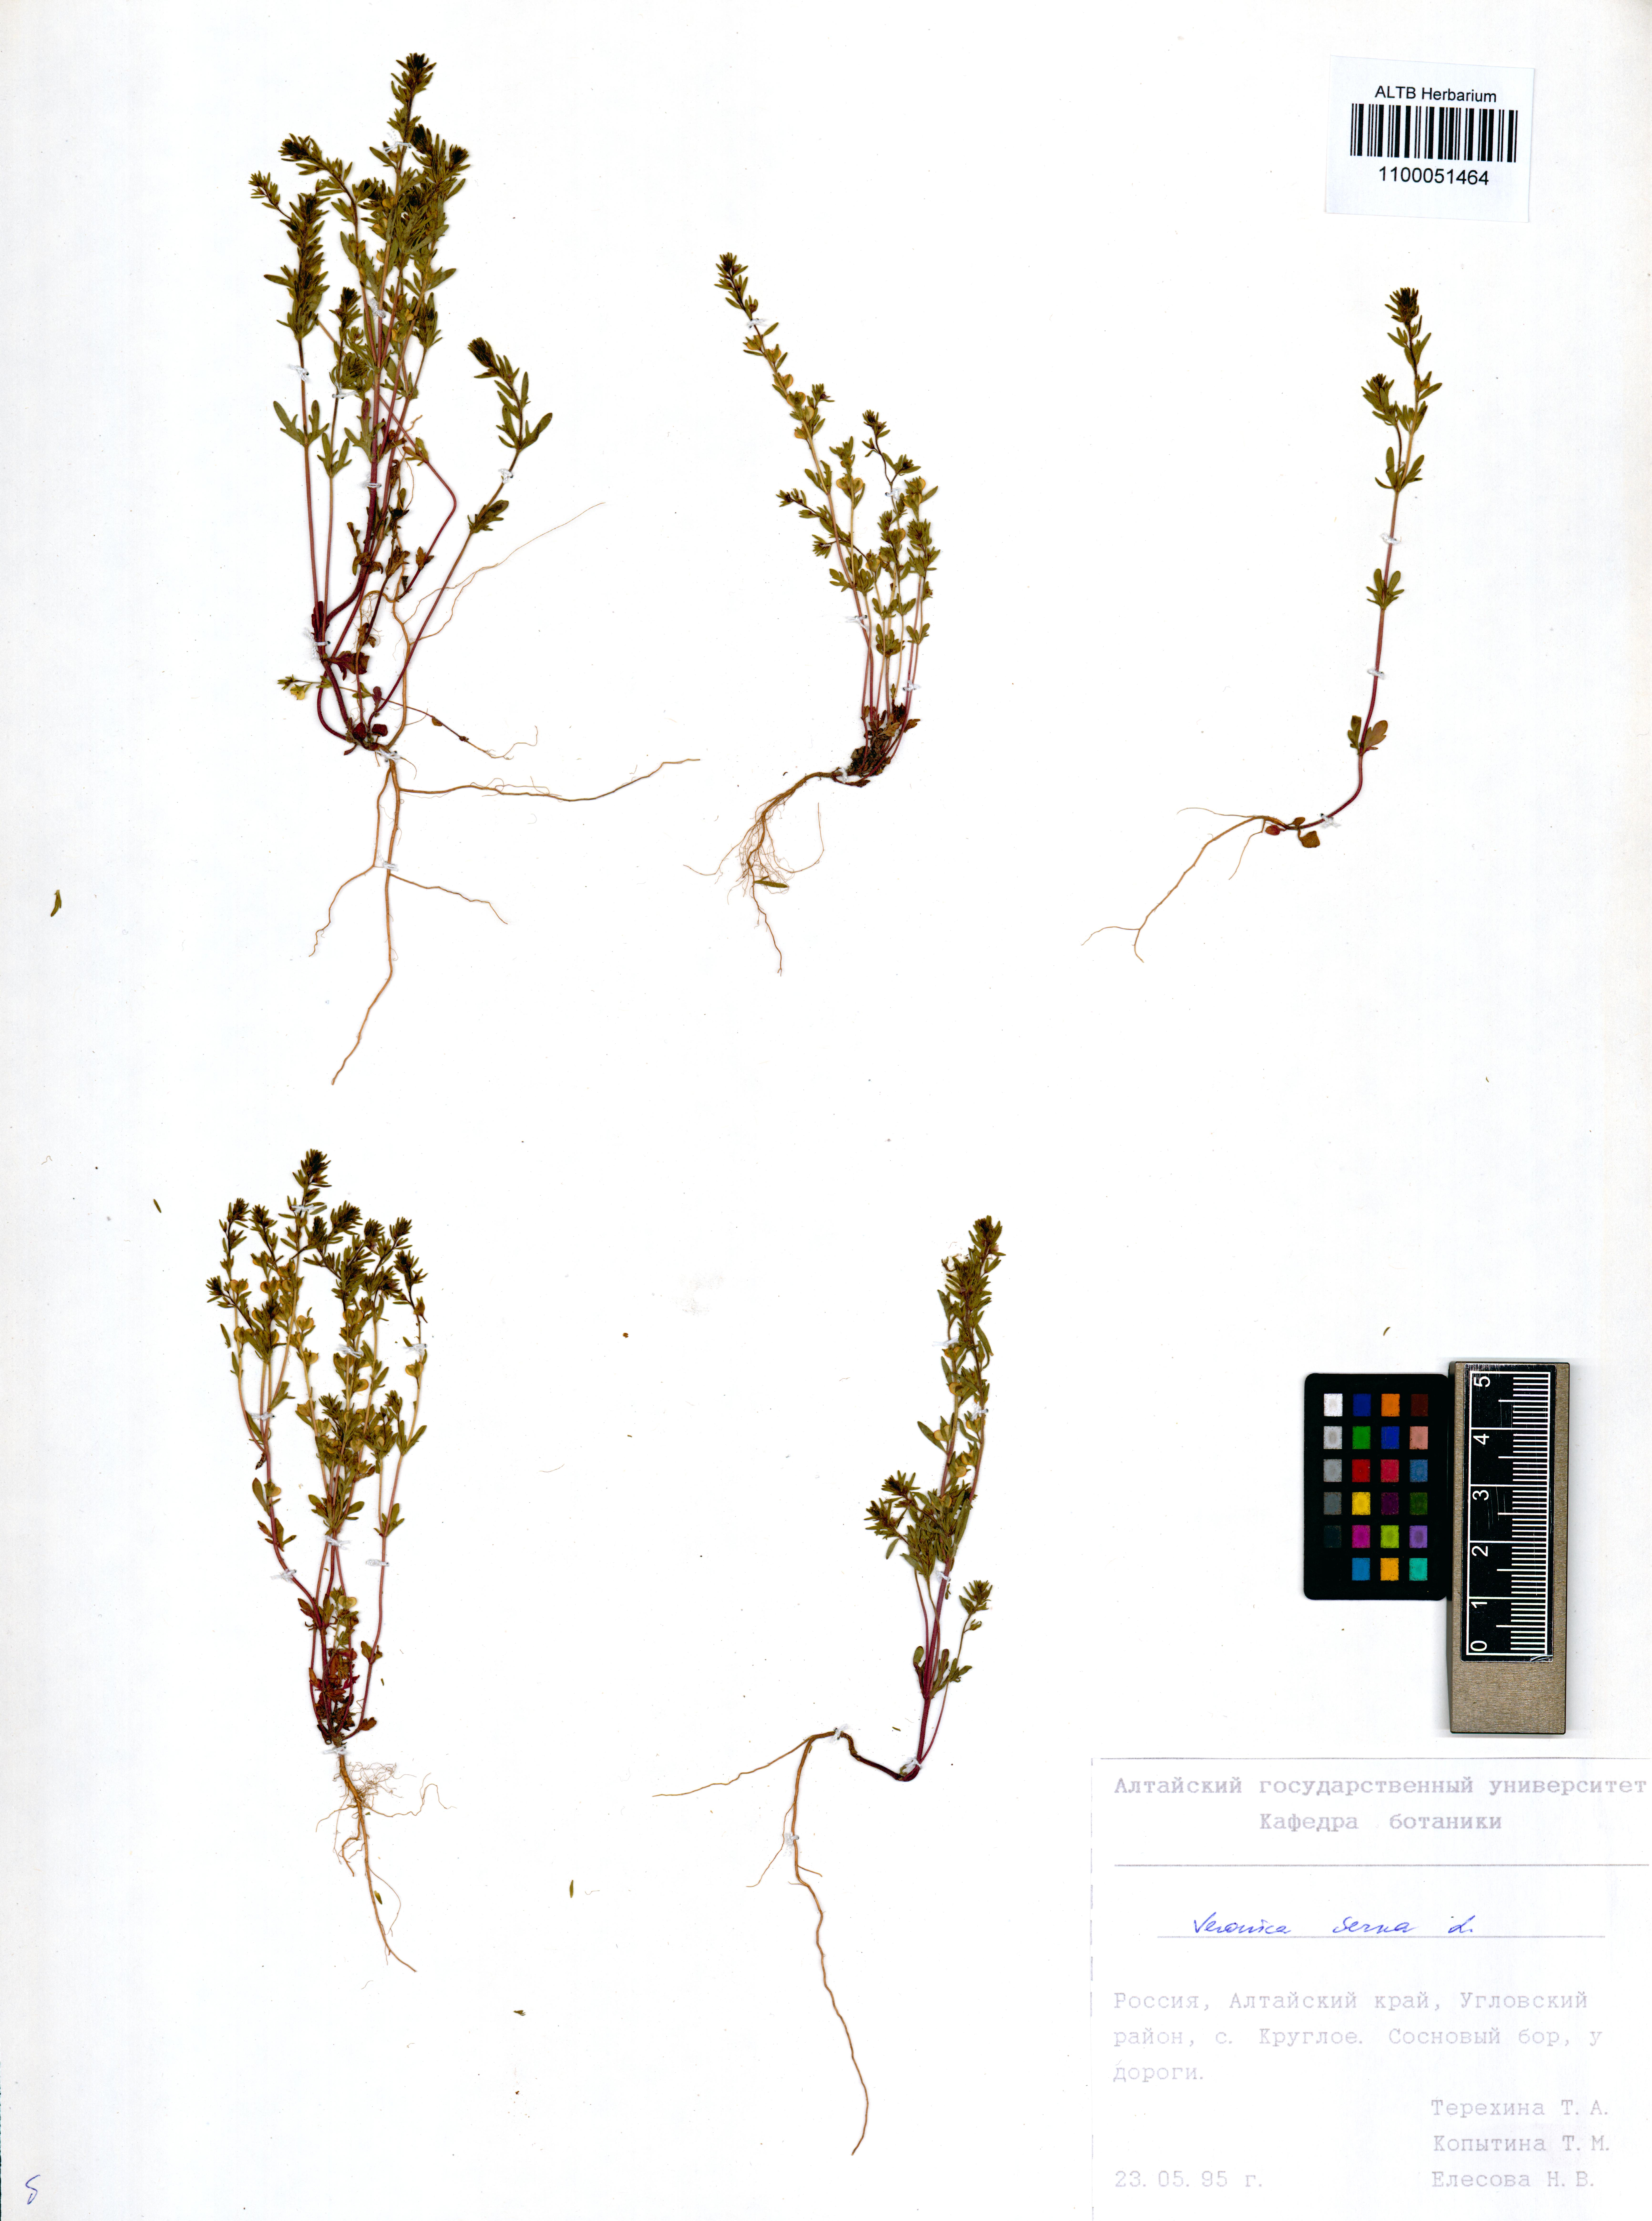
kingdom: Plantae
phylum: Tracheophyta
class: Magnoliopsida
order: Lamiales
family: Plantaginaceae
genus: Veronica
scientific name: Veronica verna
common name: Spring speedwell
